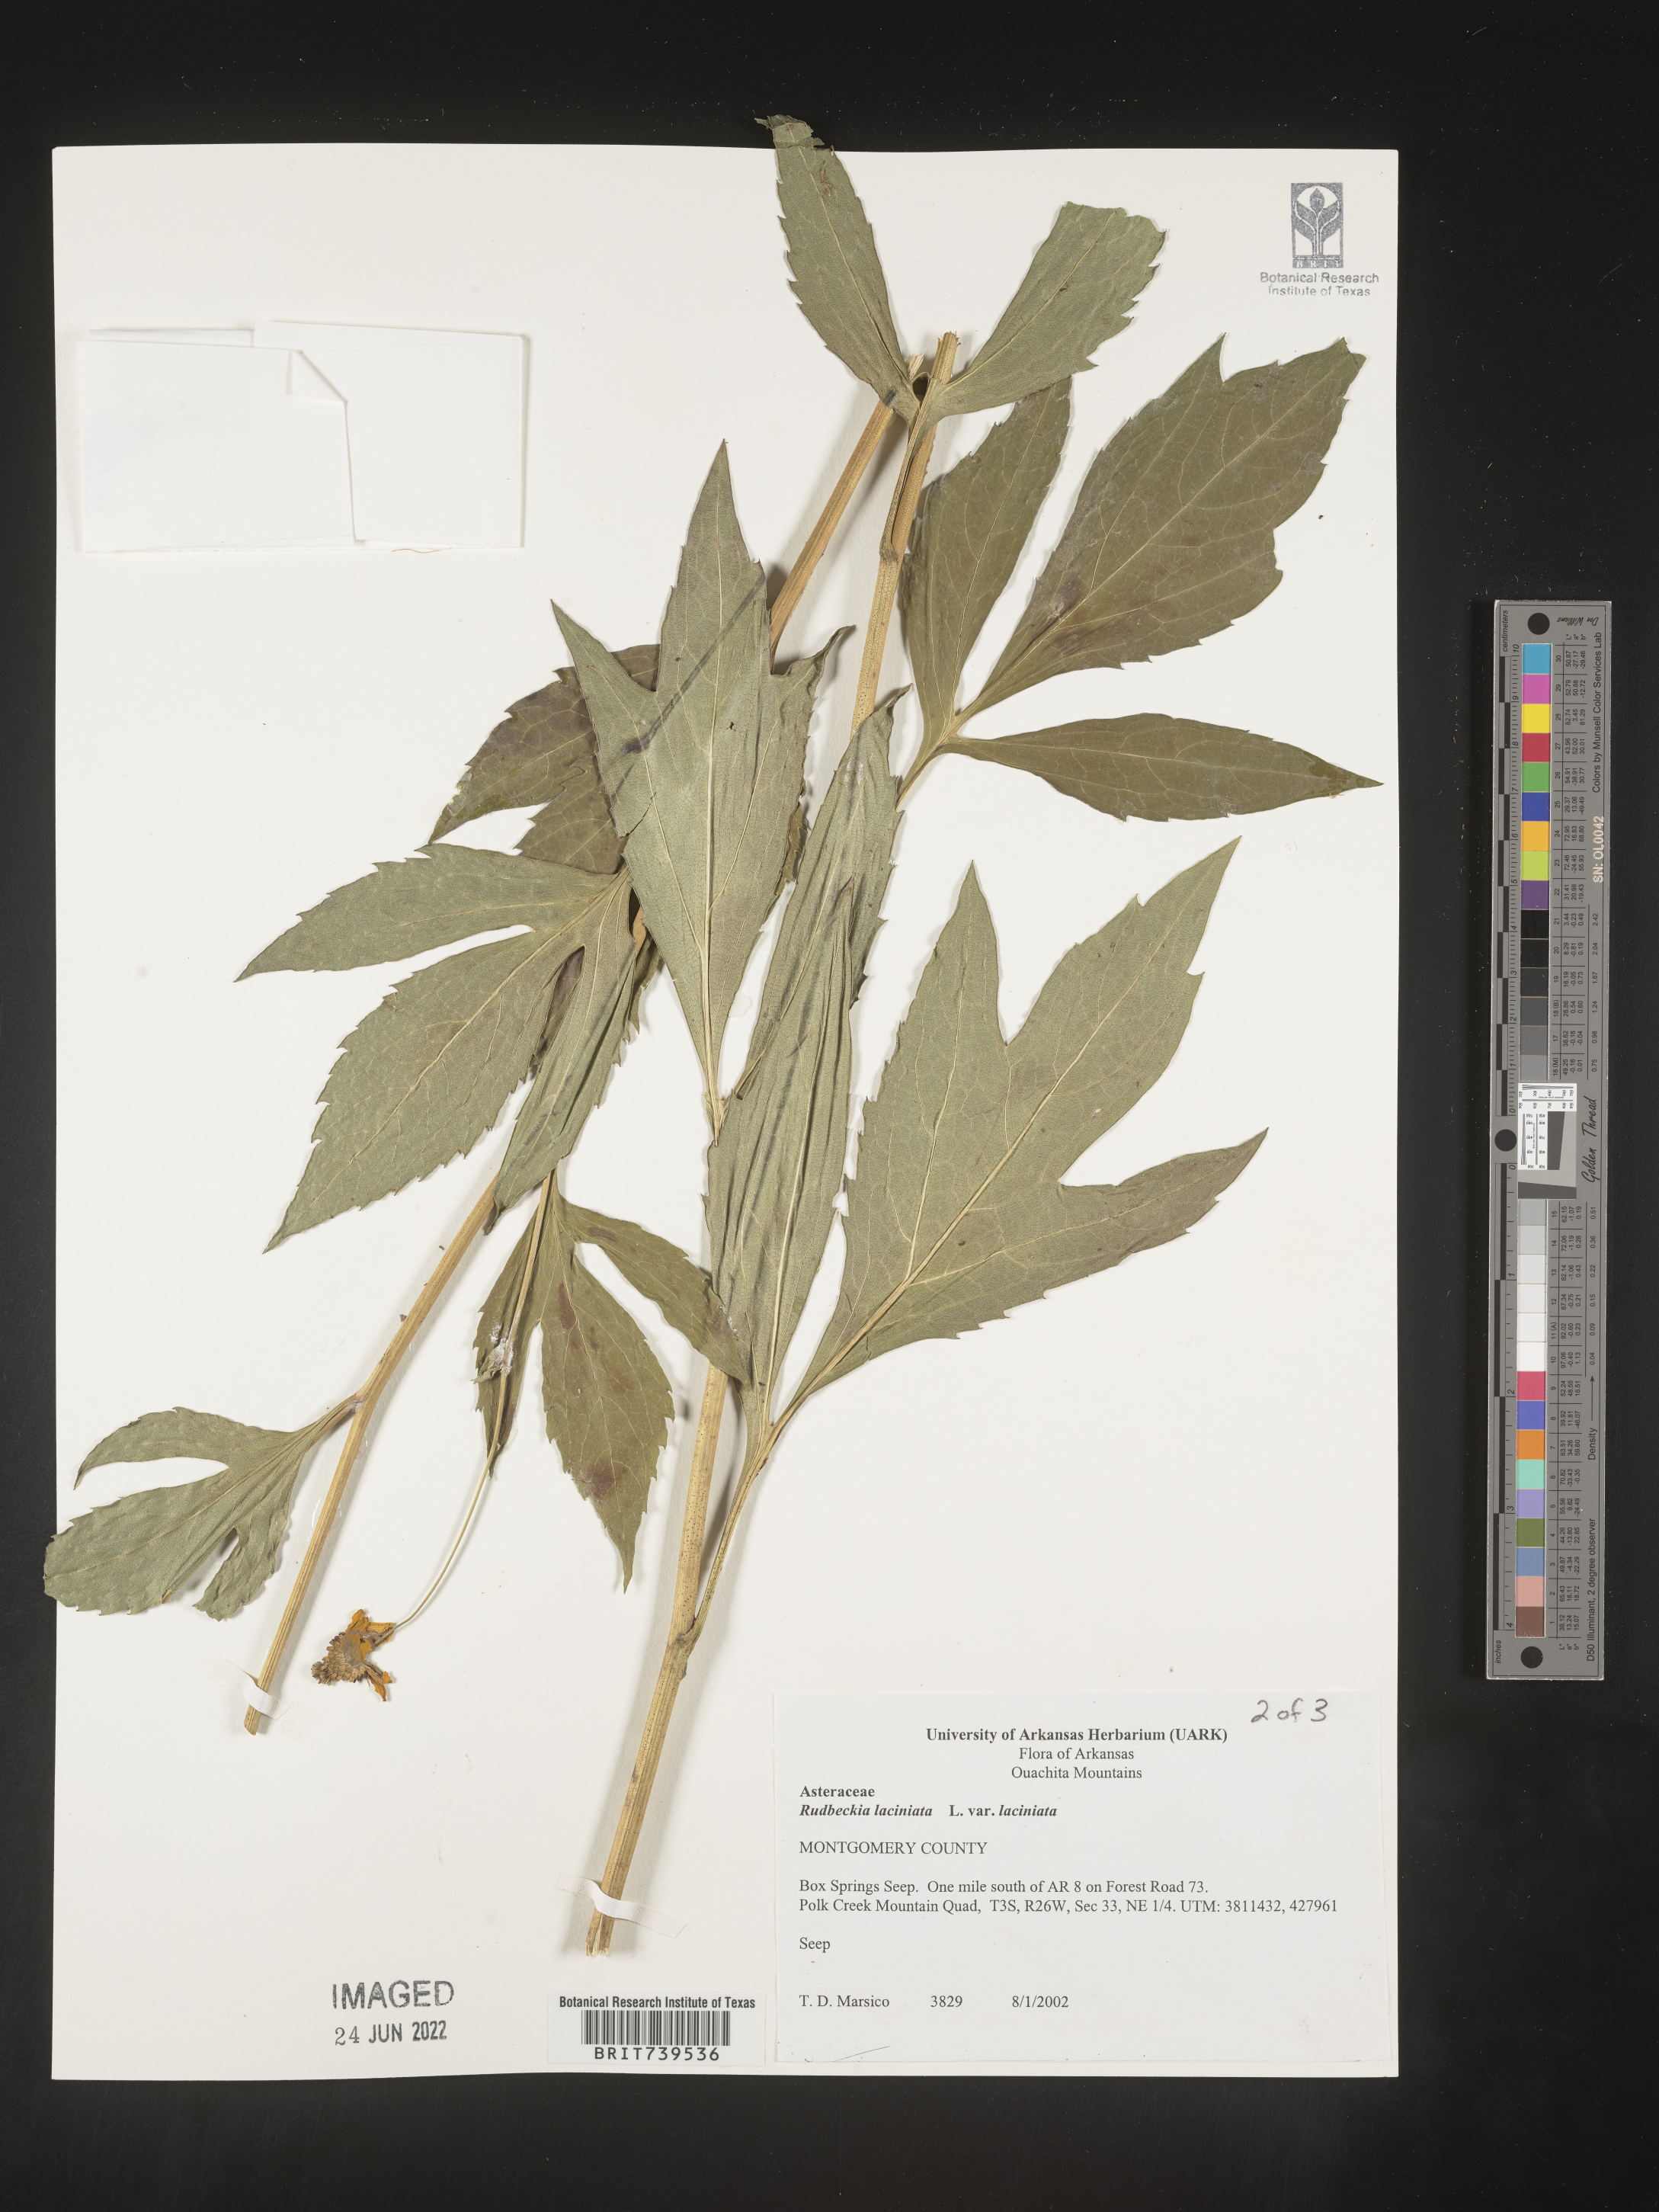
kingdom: Plantae
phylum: Tracheophyta
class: Magnoliopsida
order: Asterales
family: Asteraceae
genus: Rudbeckia
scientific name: Rudbeckia laciniata
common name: Coneflower
